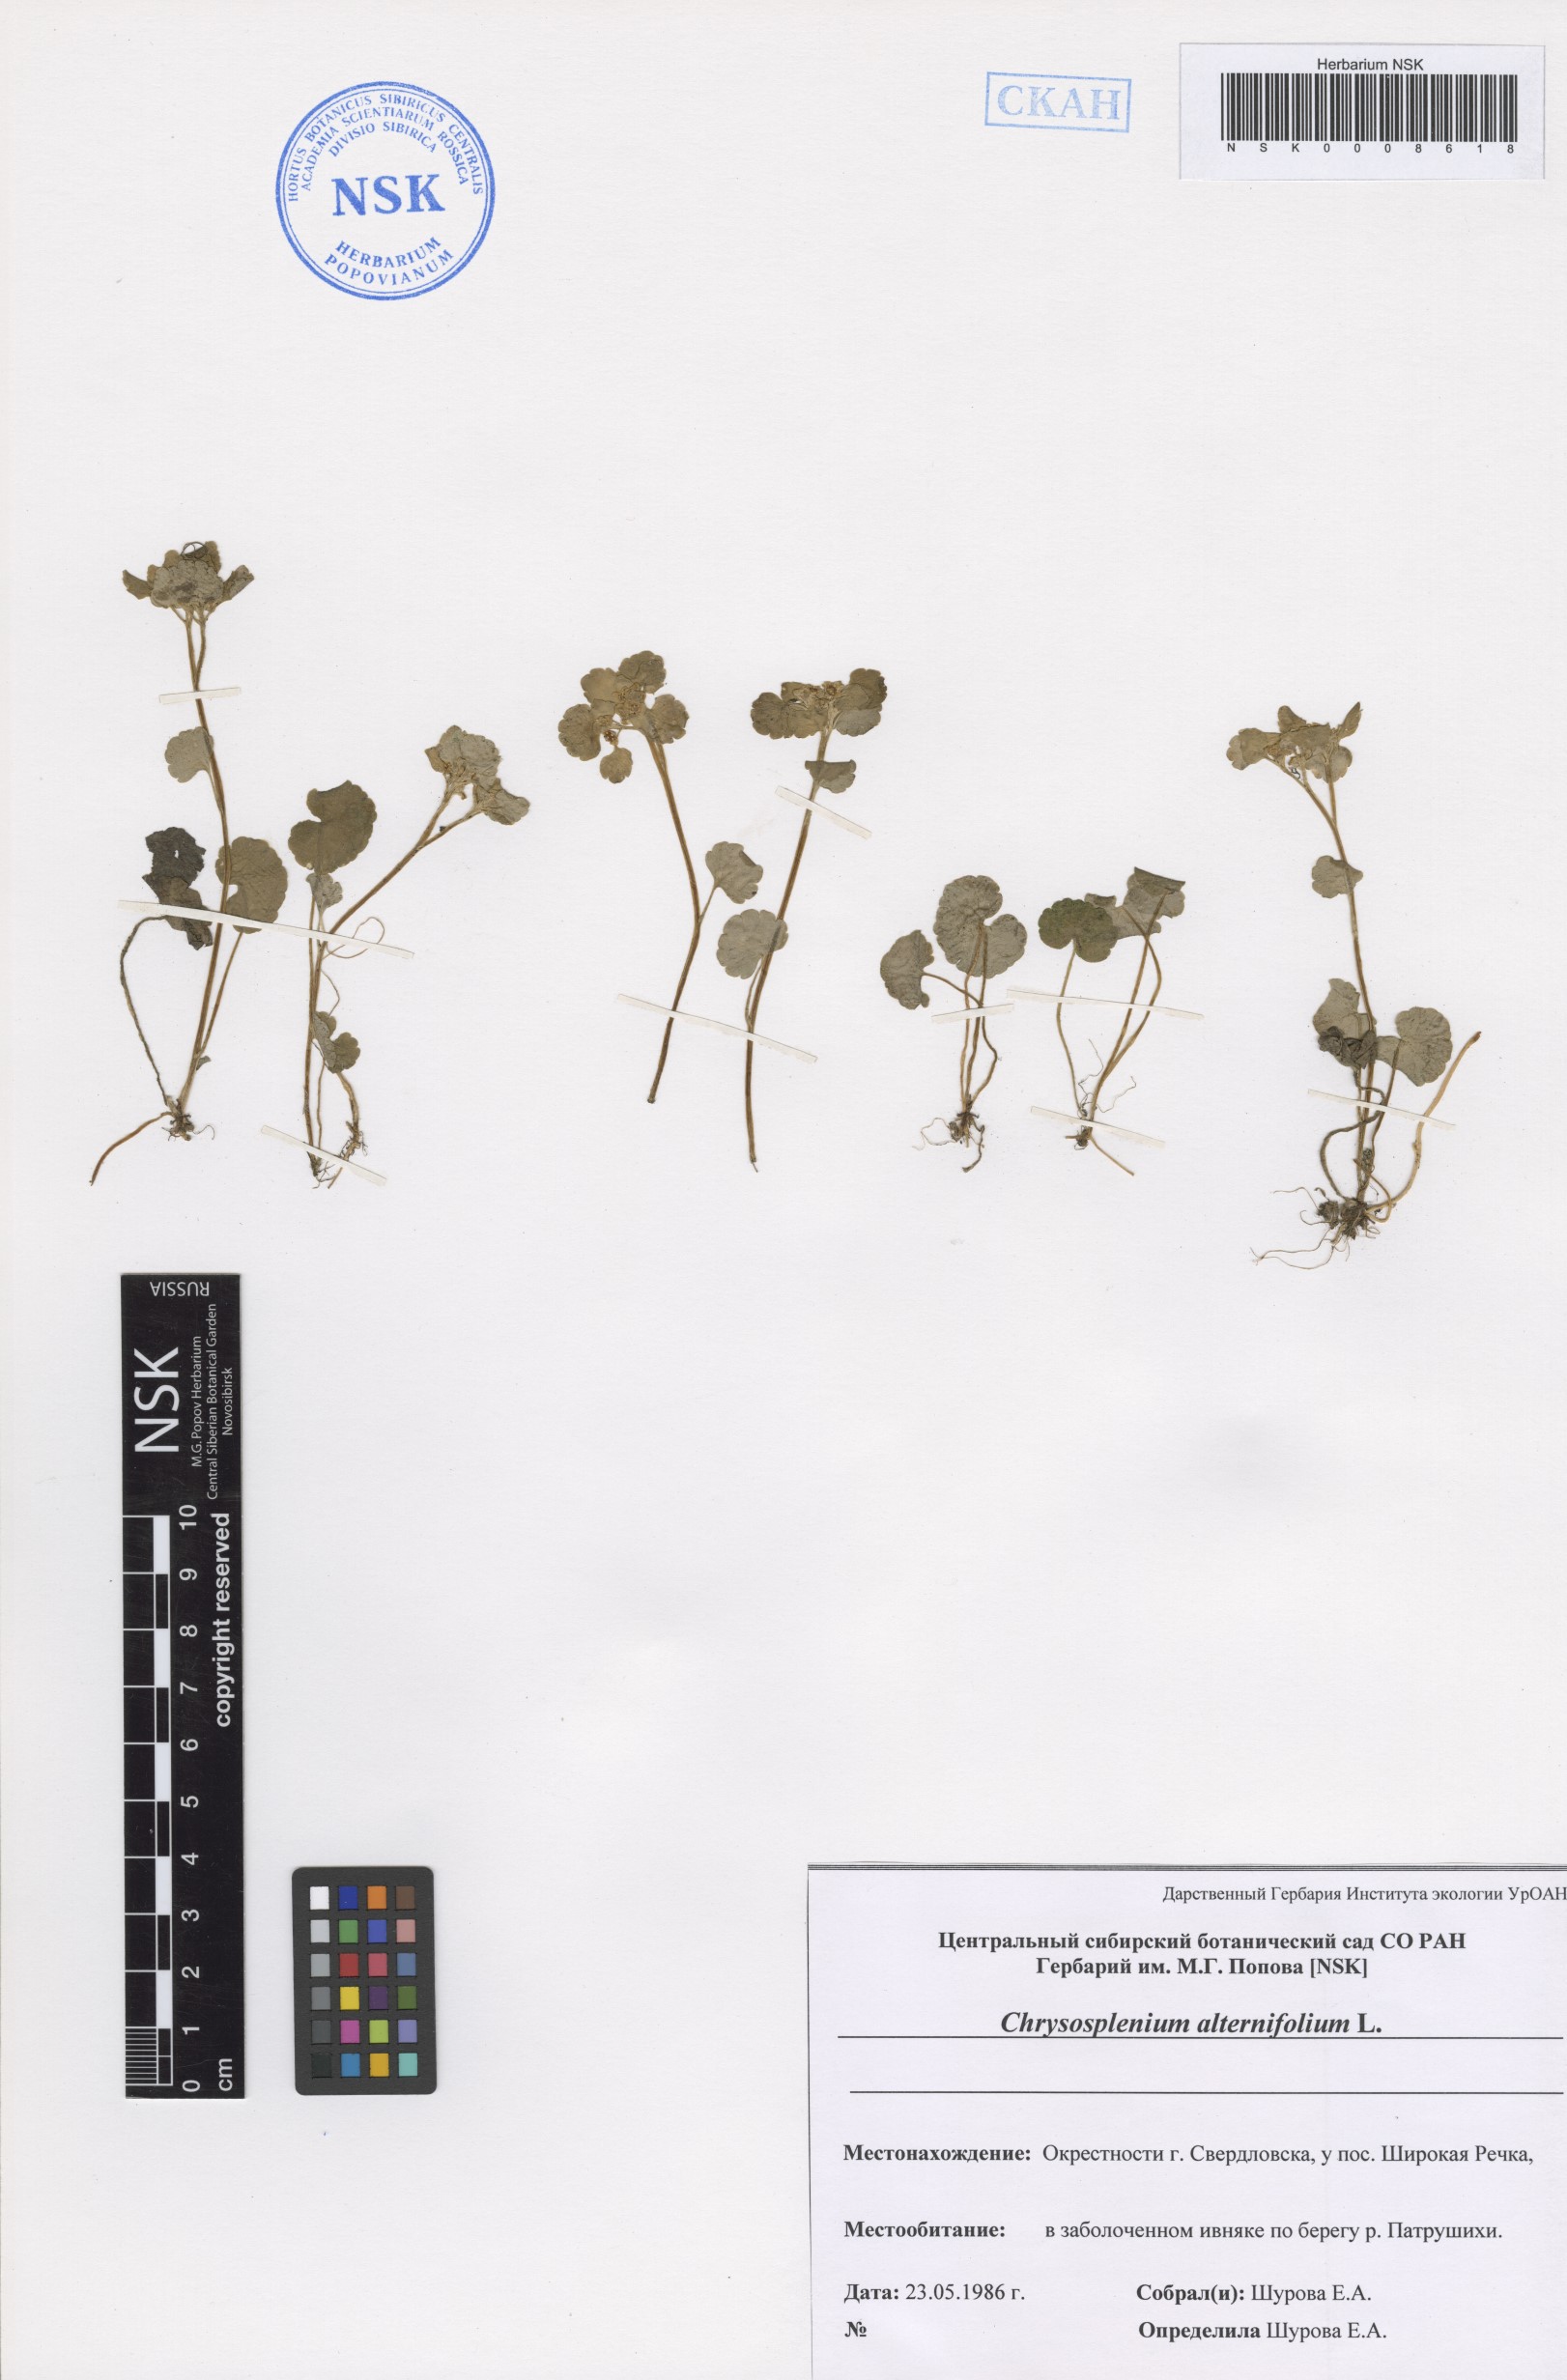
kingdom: Plantae
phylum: Tracheophyta
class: Magnoliopsida
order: Saxifragales
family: Saxifragaceae
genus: Chrysosplenium
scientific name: Chrysosplenium alternifolium
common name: Alternate-leaved golden-saxifrage
